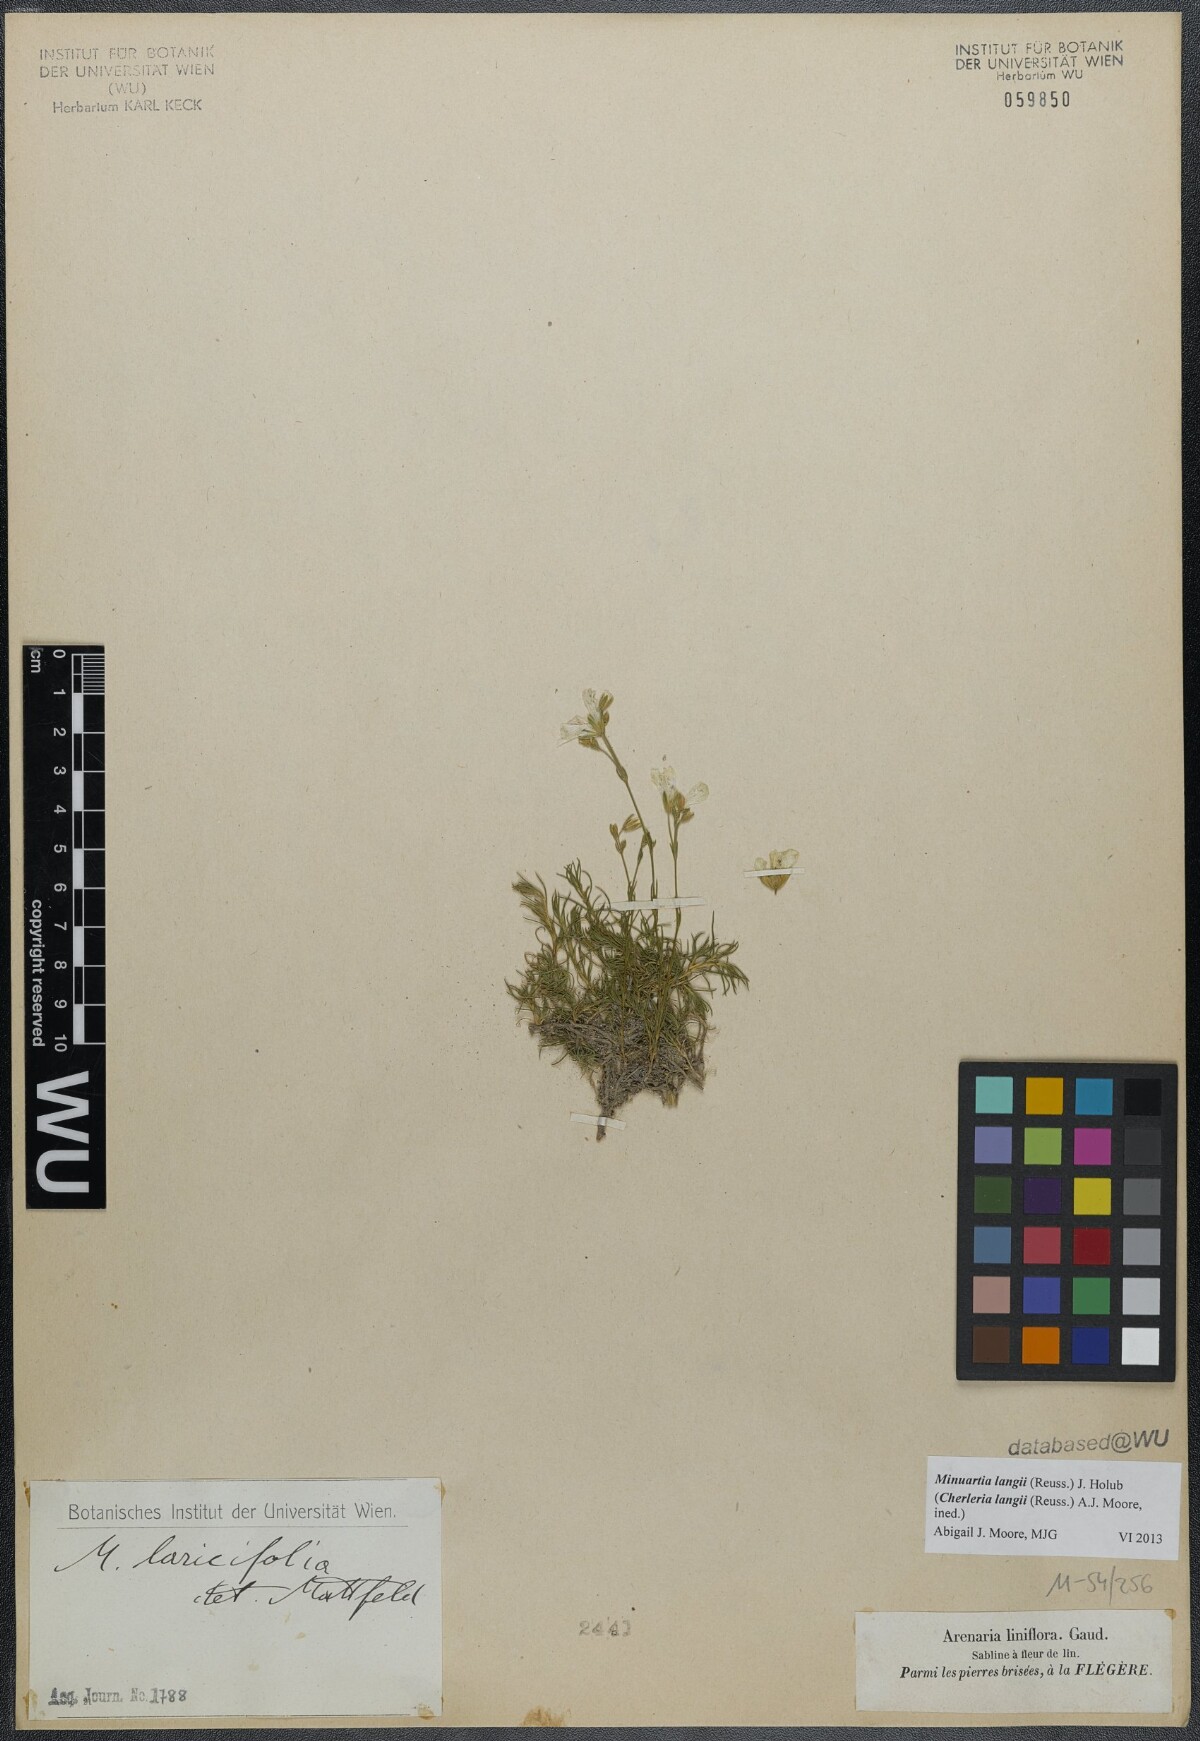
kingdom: Plantae
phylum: Tracheophyta
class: Magnoliopsida
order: Caryophyllales
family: Caryophyllaceae
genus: Cherleria
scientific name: Cherleria langii
